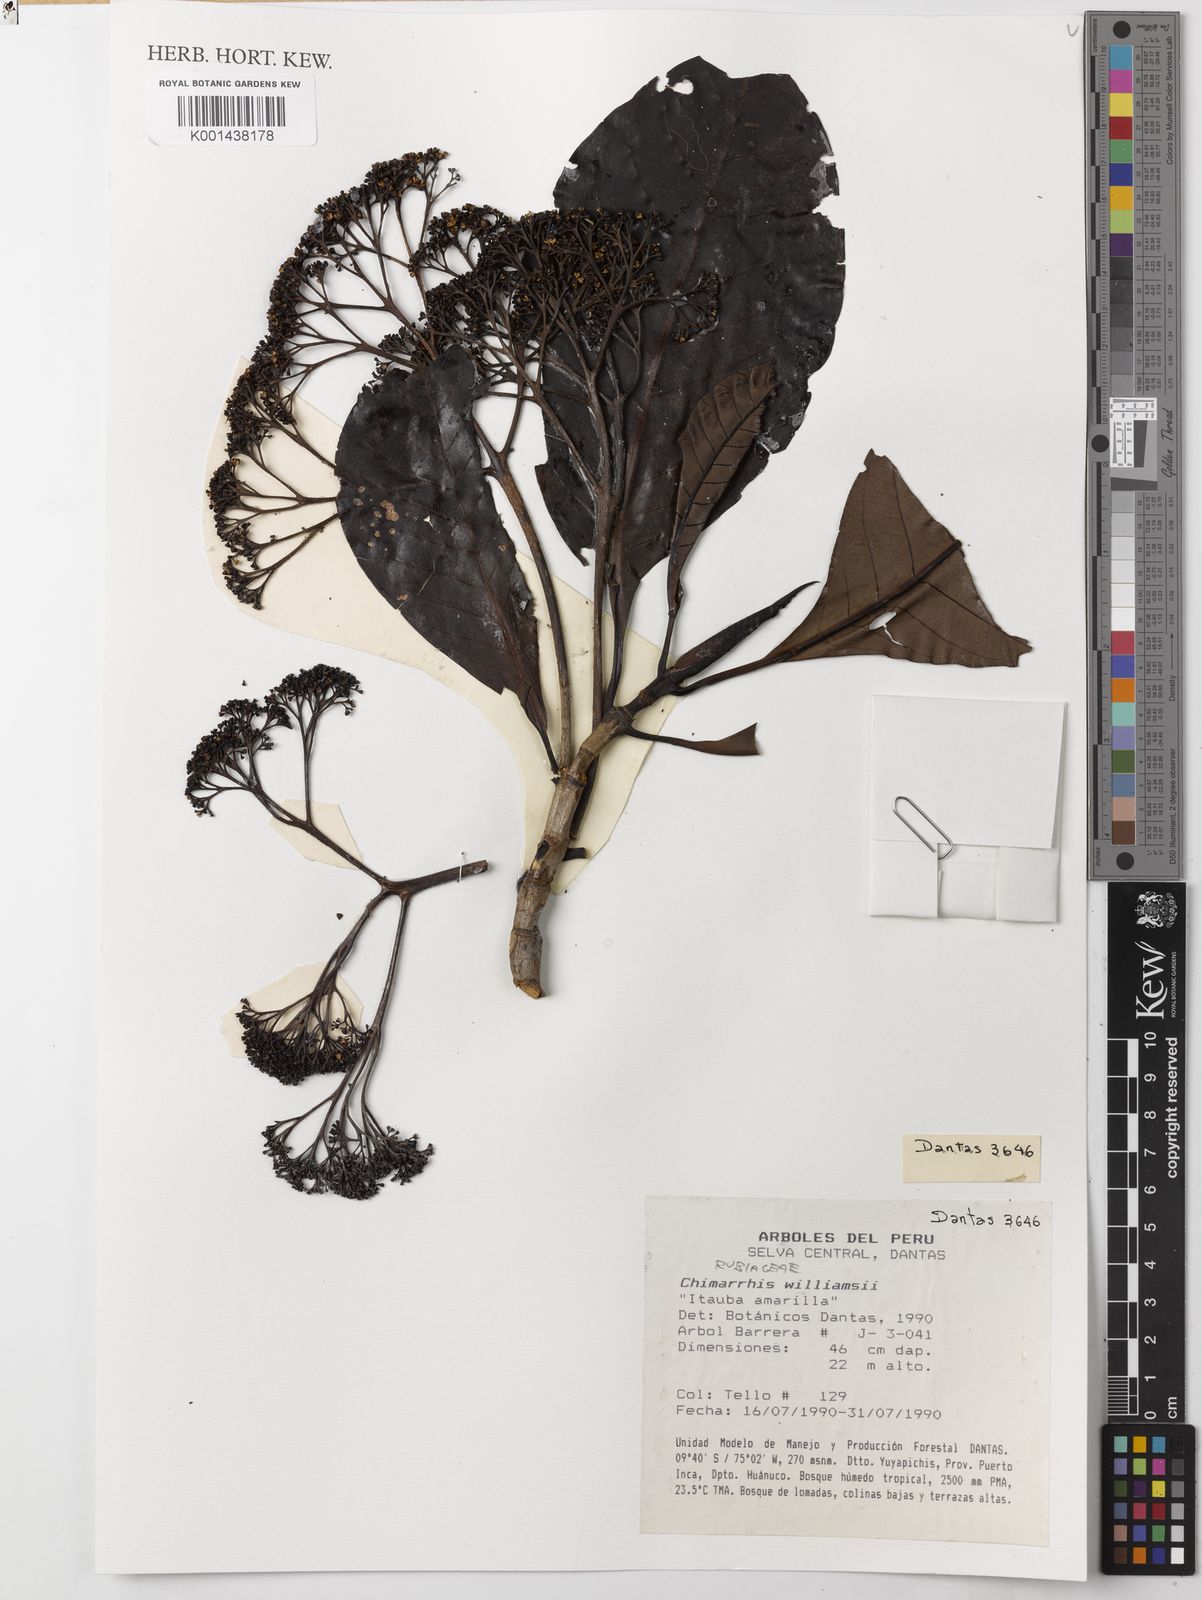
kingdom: Plantae
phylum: Tracheophyta
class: Magnoliopsida
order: Gentianales
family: Rubiaceae
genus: Chimarrhis
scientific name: Chimarrhis hookeri
